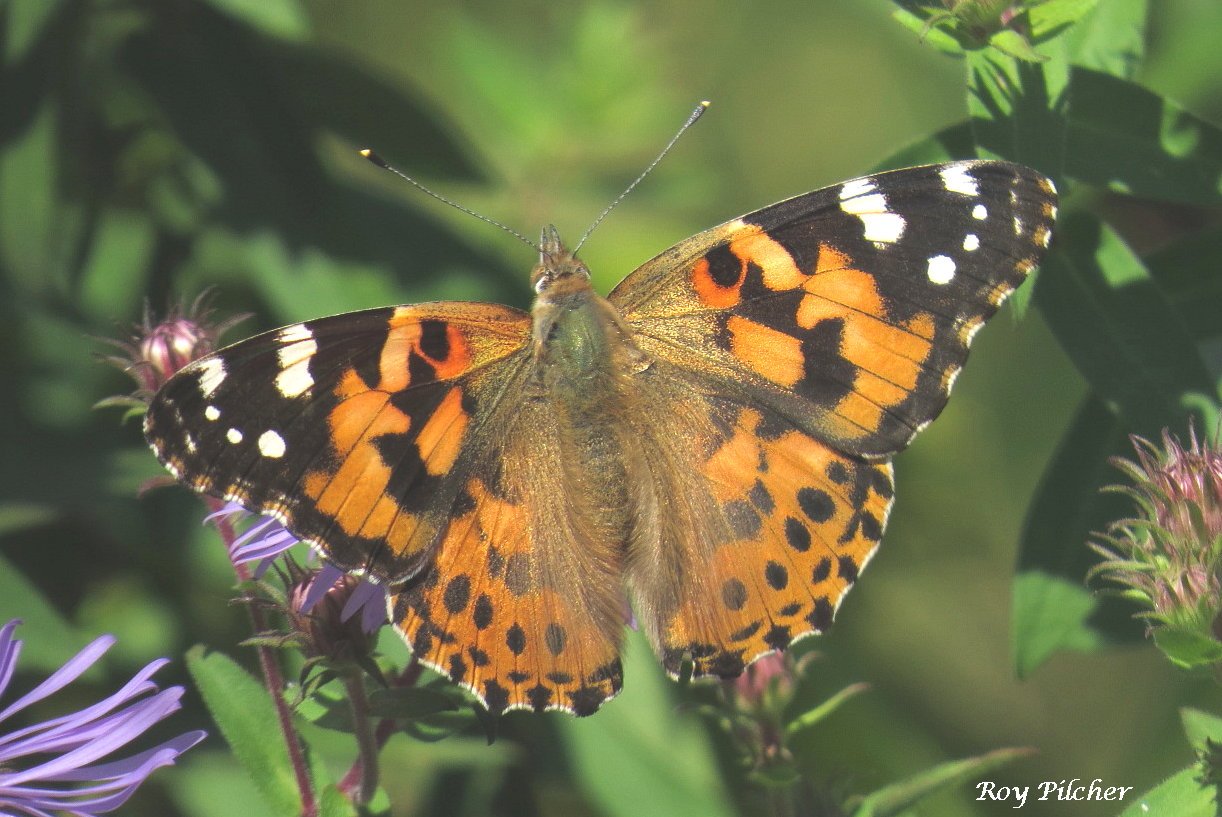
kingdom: Animalia
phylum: Arthropoda
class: Insecta
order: Lepidoptera
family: Nymphalidae
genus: Vanessa
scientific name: Vanessa cardui
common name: Painted Lady
